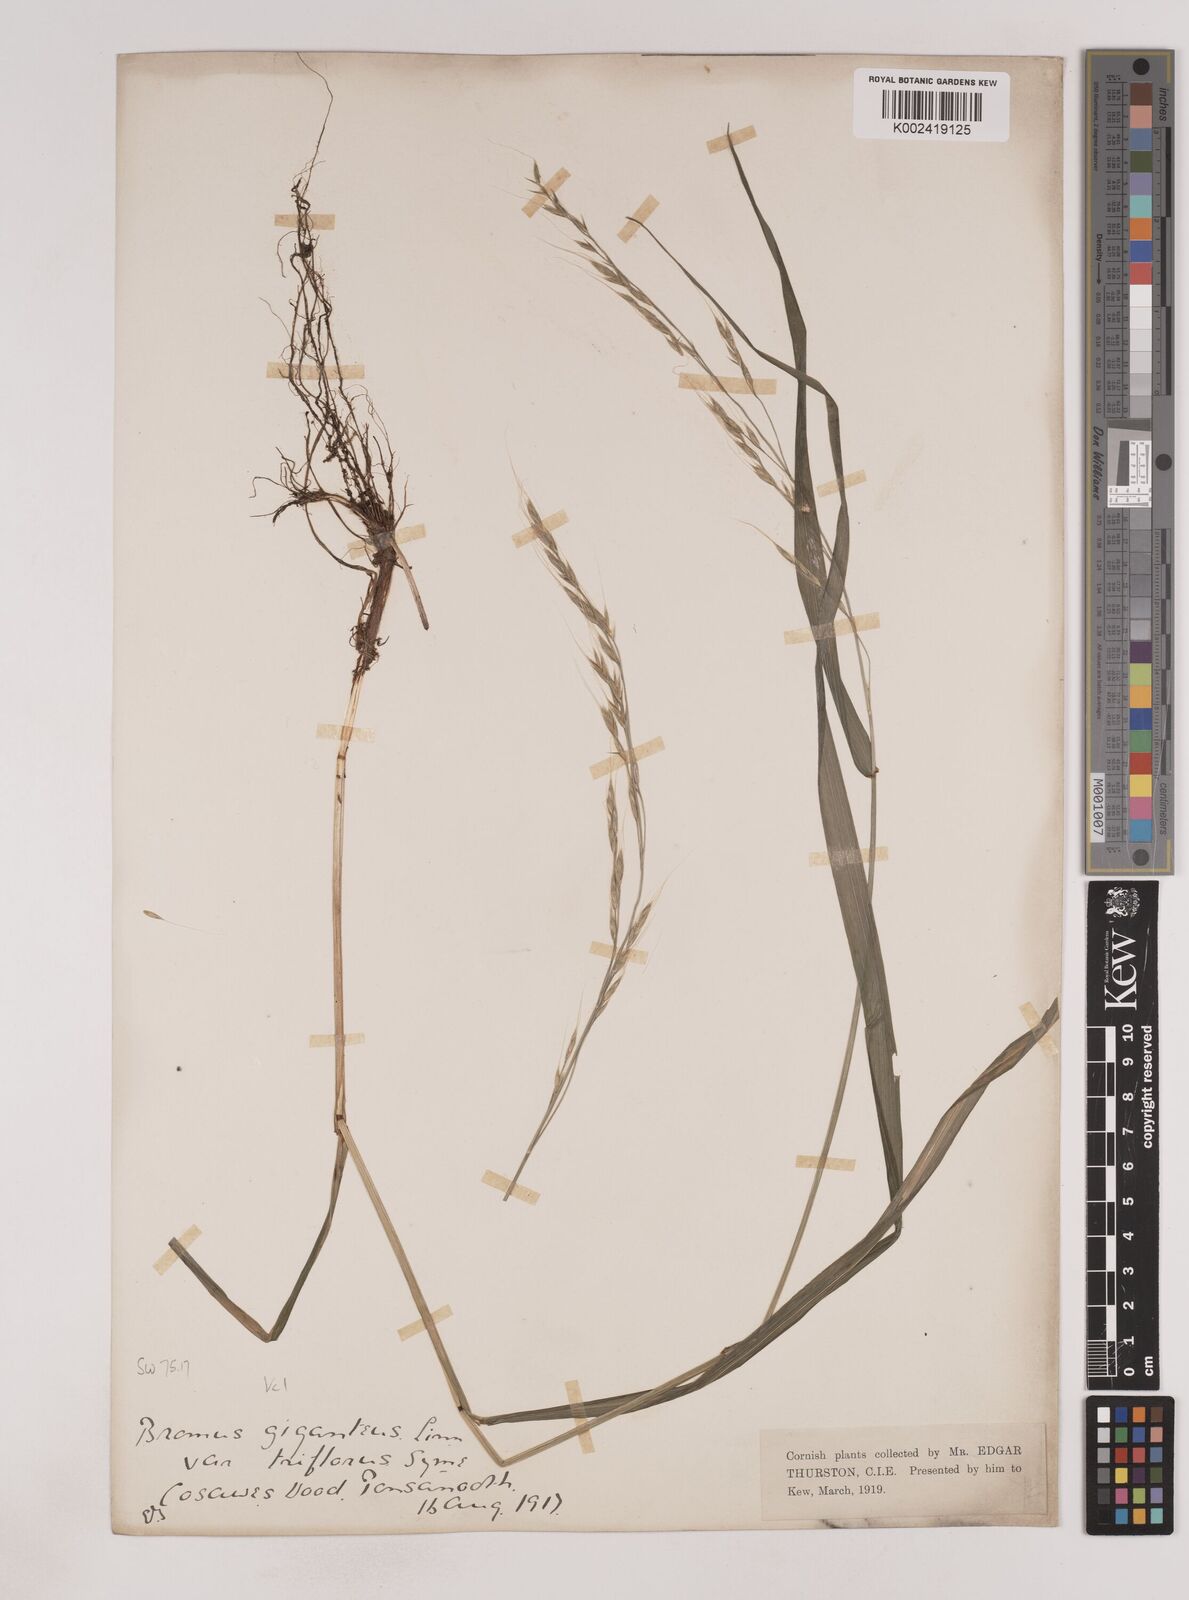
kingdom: Plantae
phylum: Tracheophyta
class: Liliopsida
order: Poales
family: Poaceae
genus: Lolium
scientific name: Lolium giganteum
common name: Giant fescue
